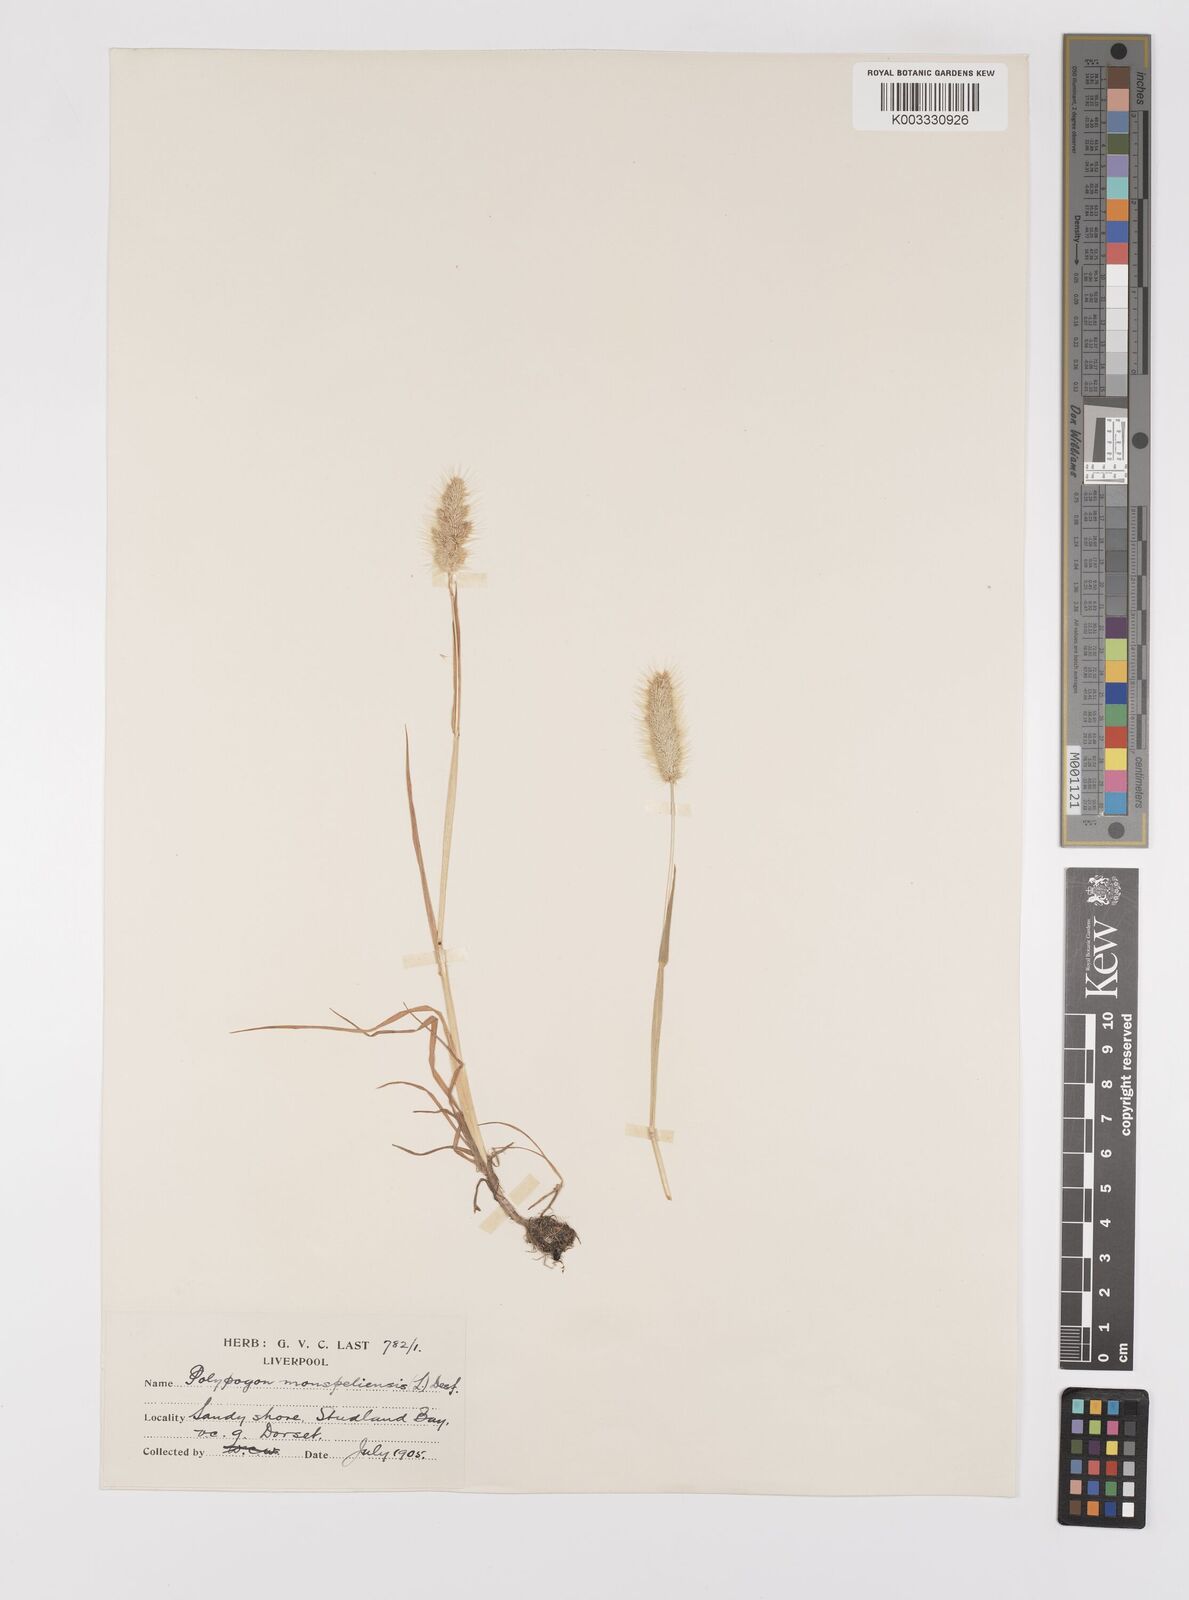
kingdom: Plantae
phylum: Tracheophyta
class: Liliopsida
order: Poales
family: Poaceae
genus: Polypogon
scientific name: Polypogon monspeliensis
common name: Annual rabbitsfoot grass
